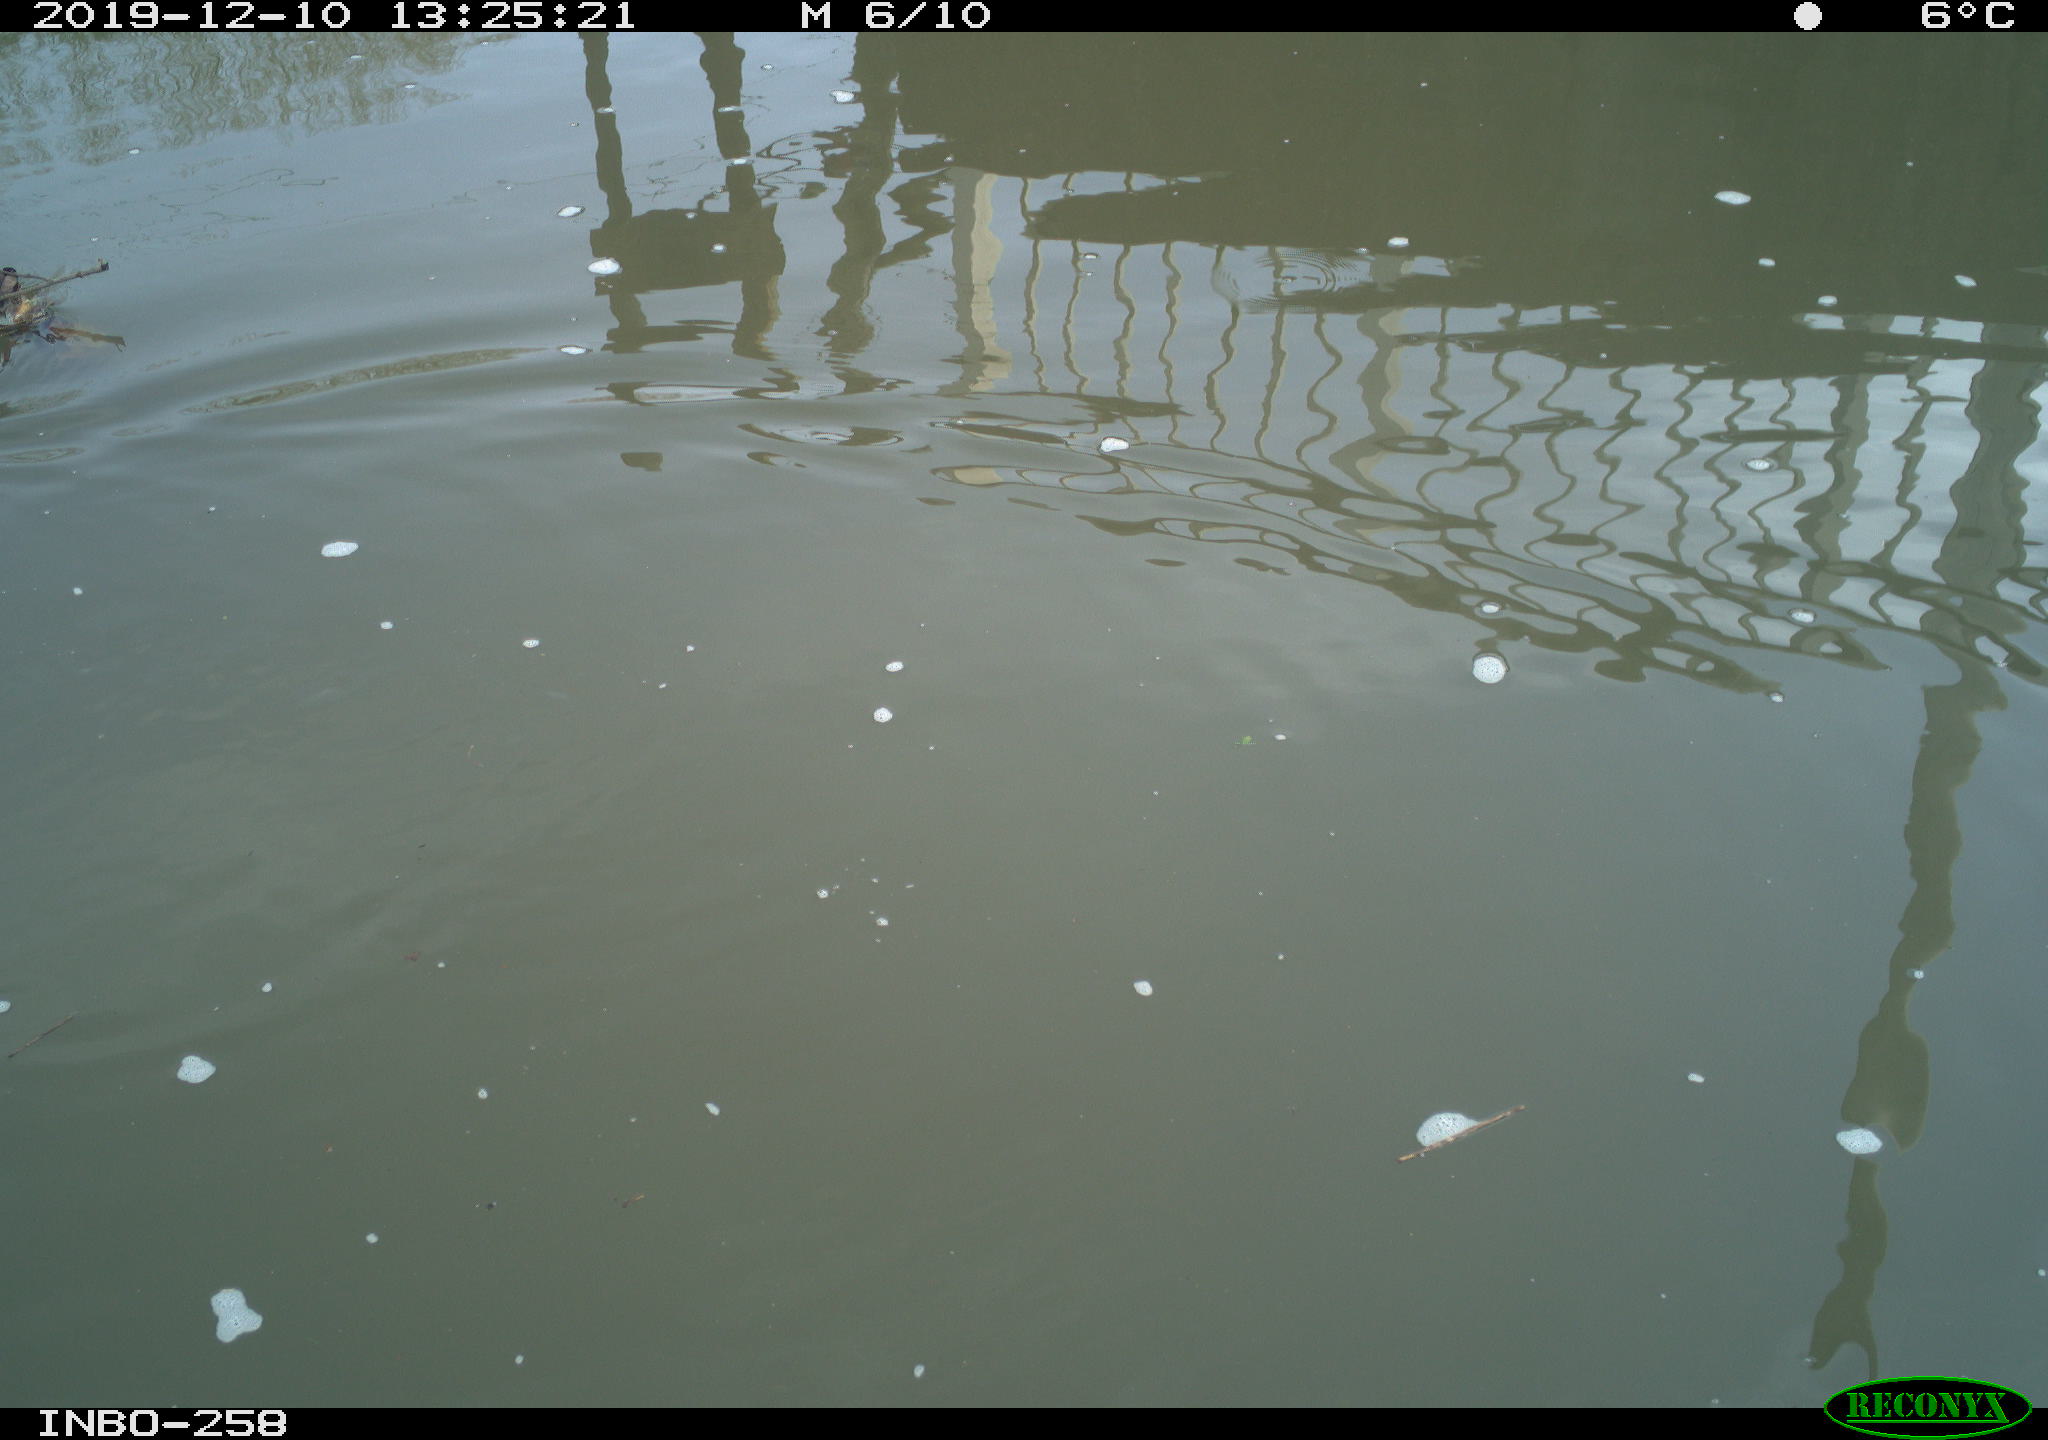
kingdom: Animalia
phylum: Chordata
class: Aves
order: Gruiformes
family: Rallidae
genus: Gallinula
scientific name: Gallinula chloropus
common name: Common moorhen
